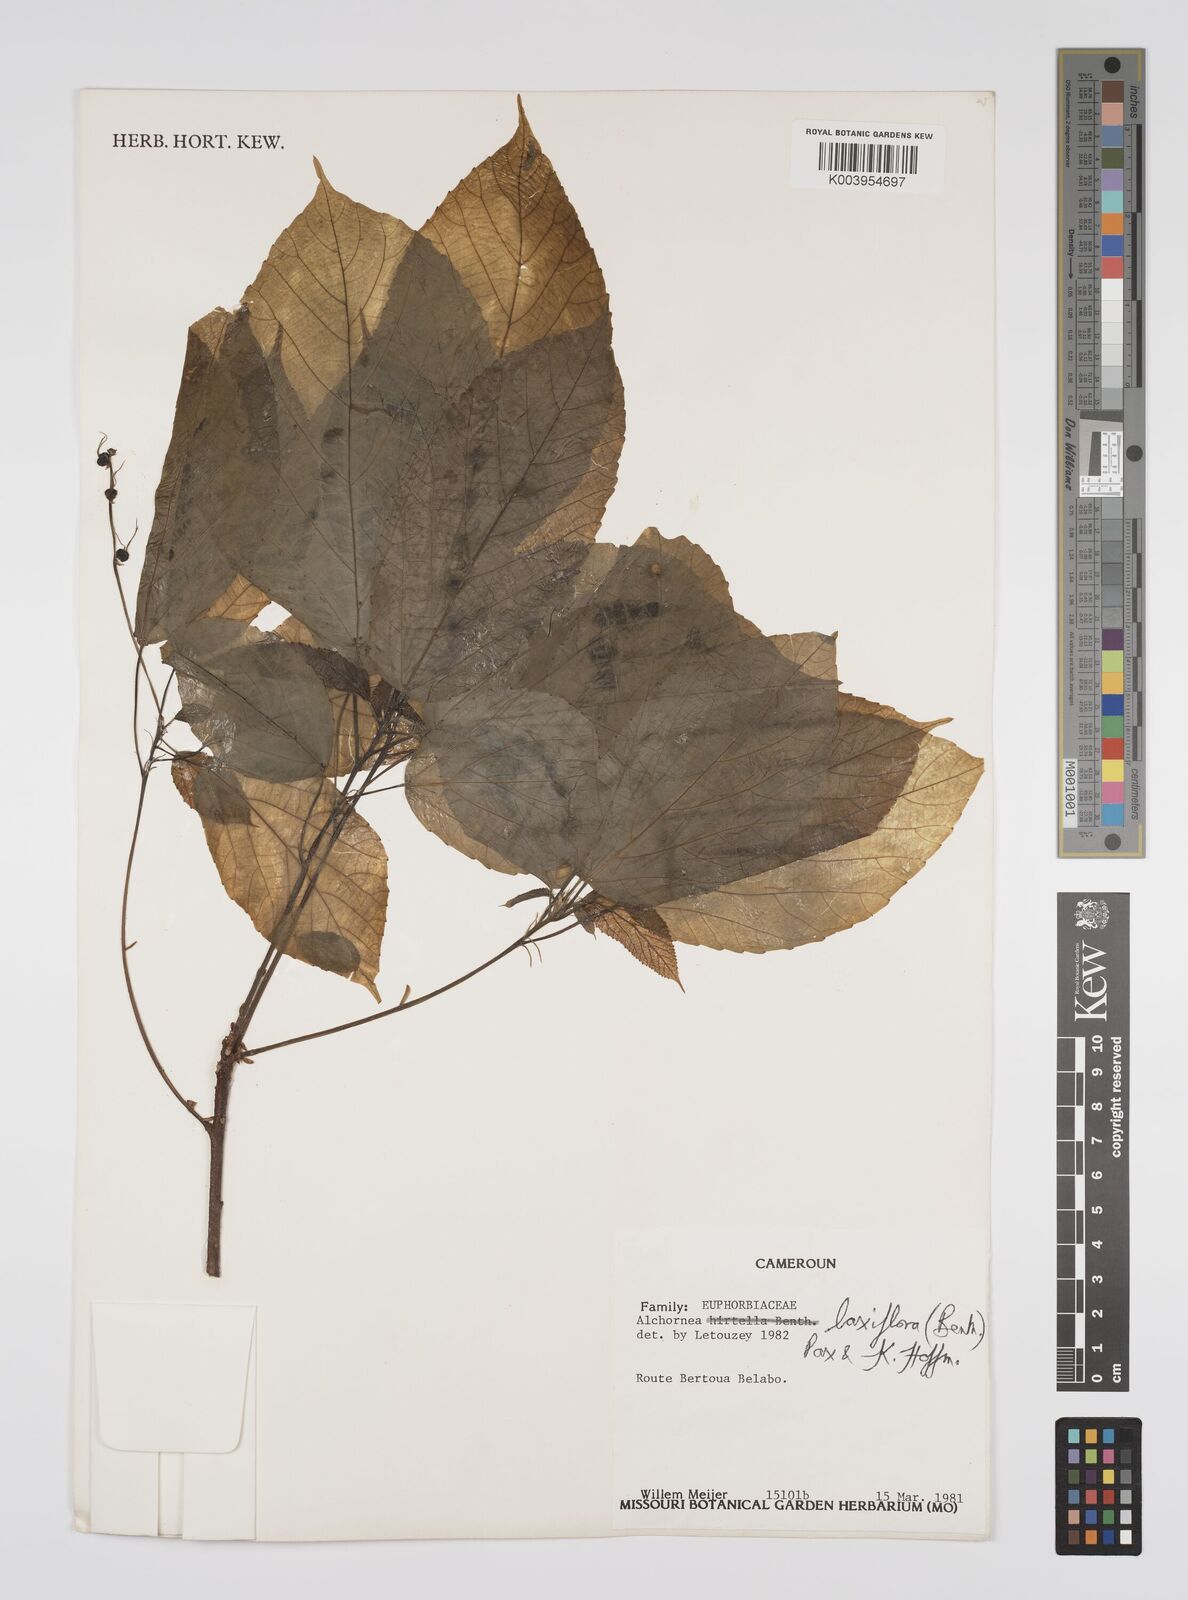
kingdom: Plantae
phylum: Tracheophyta
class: Magnoliopsida
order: Malpighiales
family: Euphorbiaceae
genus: Alchornea
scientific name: Alchornea laxiflora
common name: Lowveld bead-string
